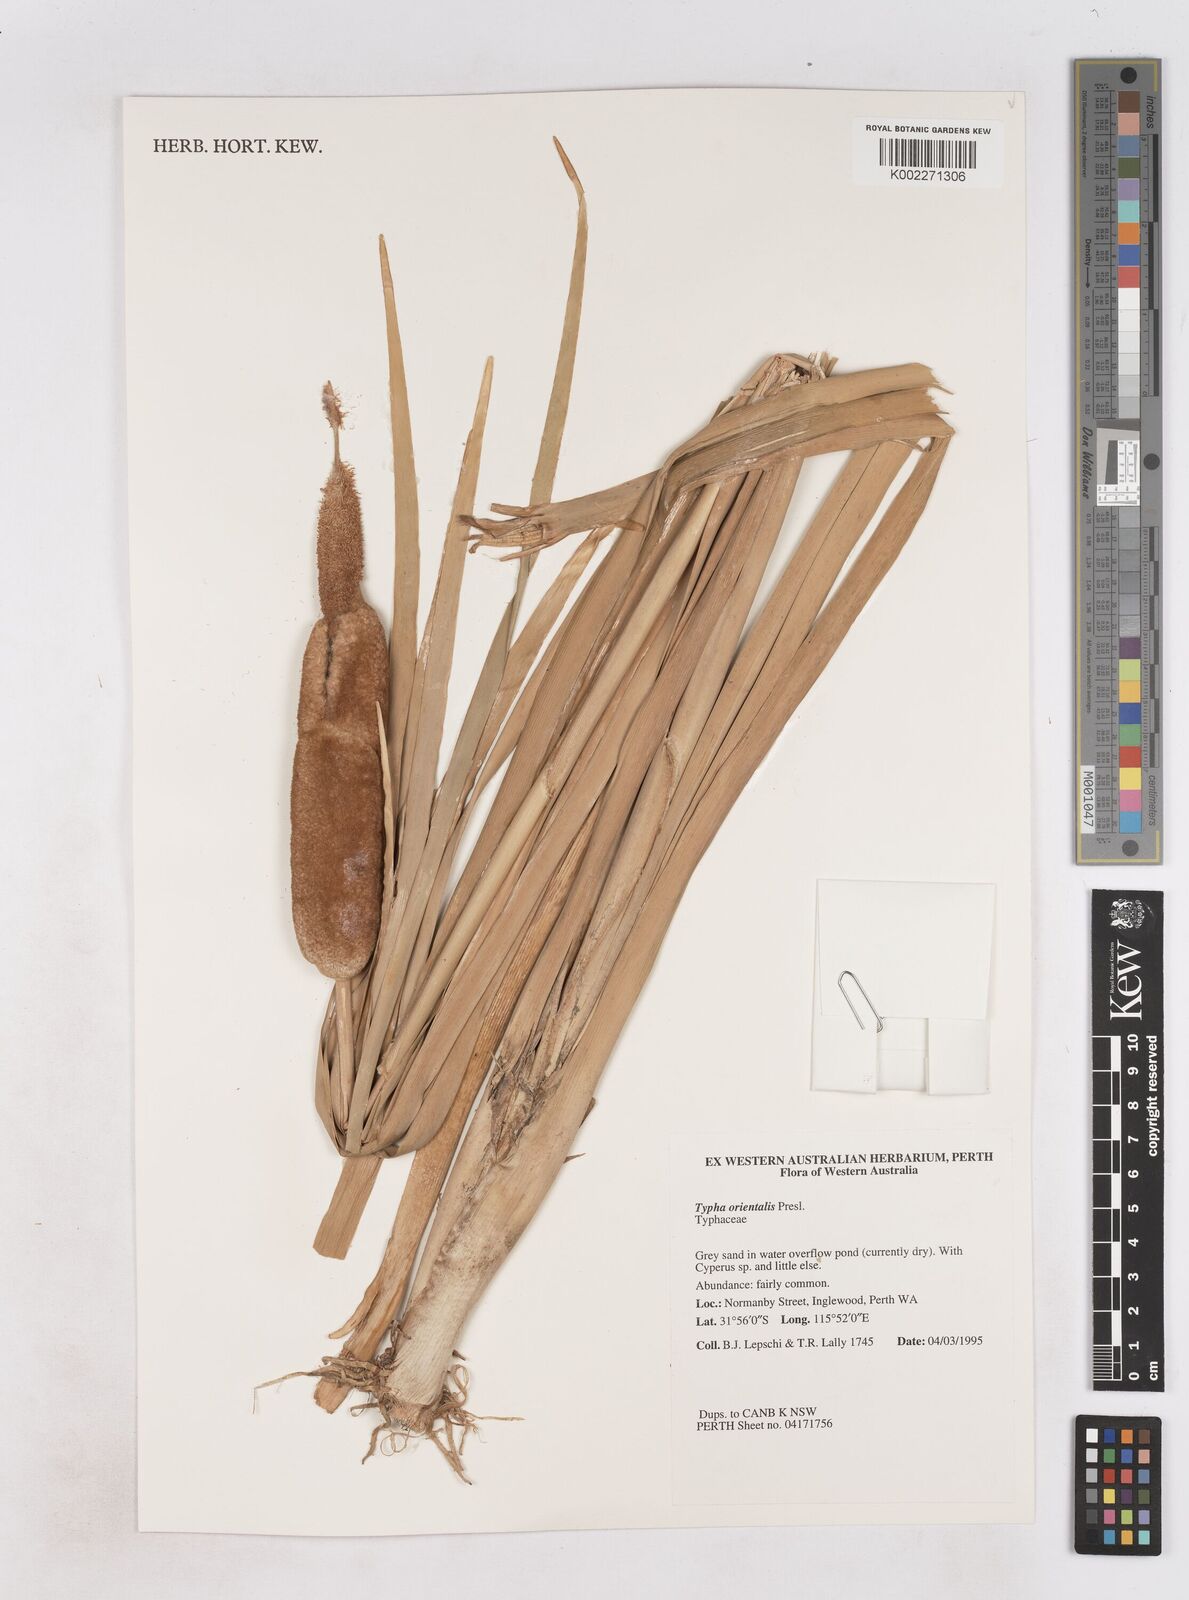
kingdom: Plantae
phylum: Tracheophyta
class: Liliopsida
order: Poales
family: Typhaceae
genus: Typha
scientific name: Typha orientalis
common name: Bullrush
